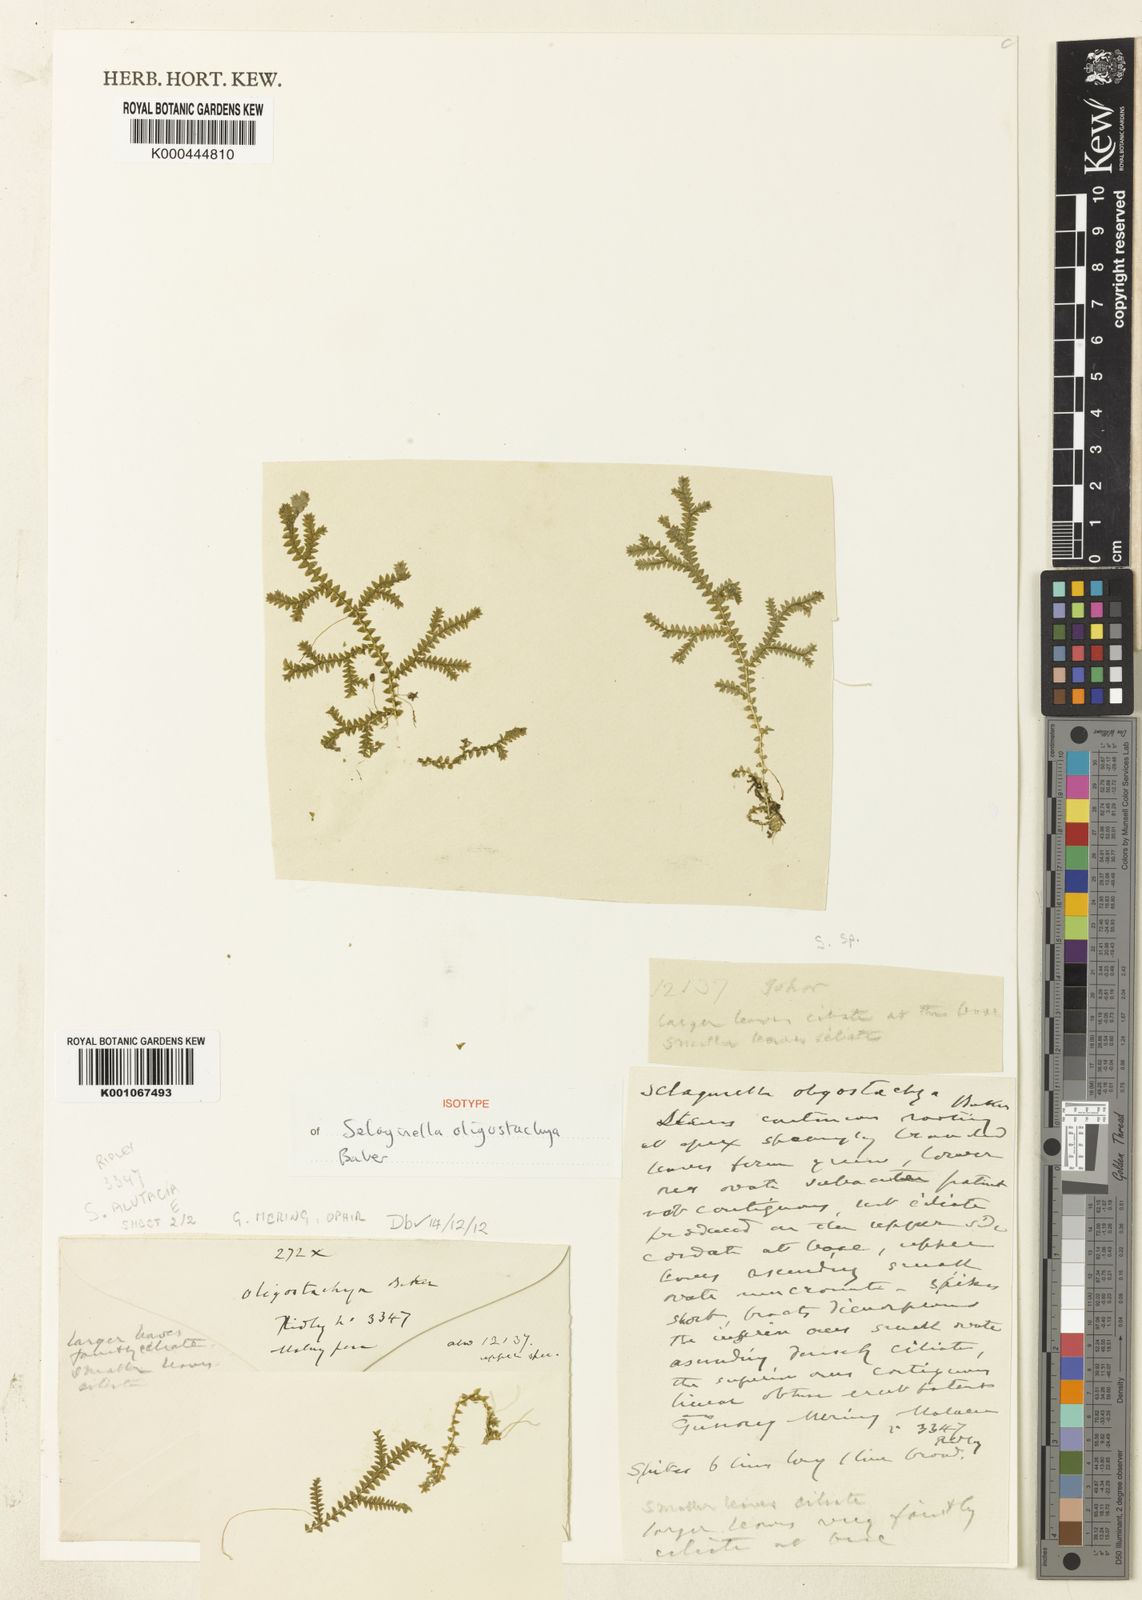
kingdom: Plantae
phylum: Tracheophyta
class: Lycopodiopsida
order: Selaginellales
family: Selaginellaceae
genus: Selaginella
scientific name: Selaginella
